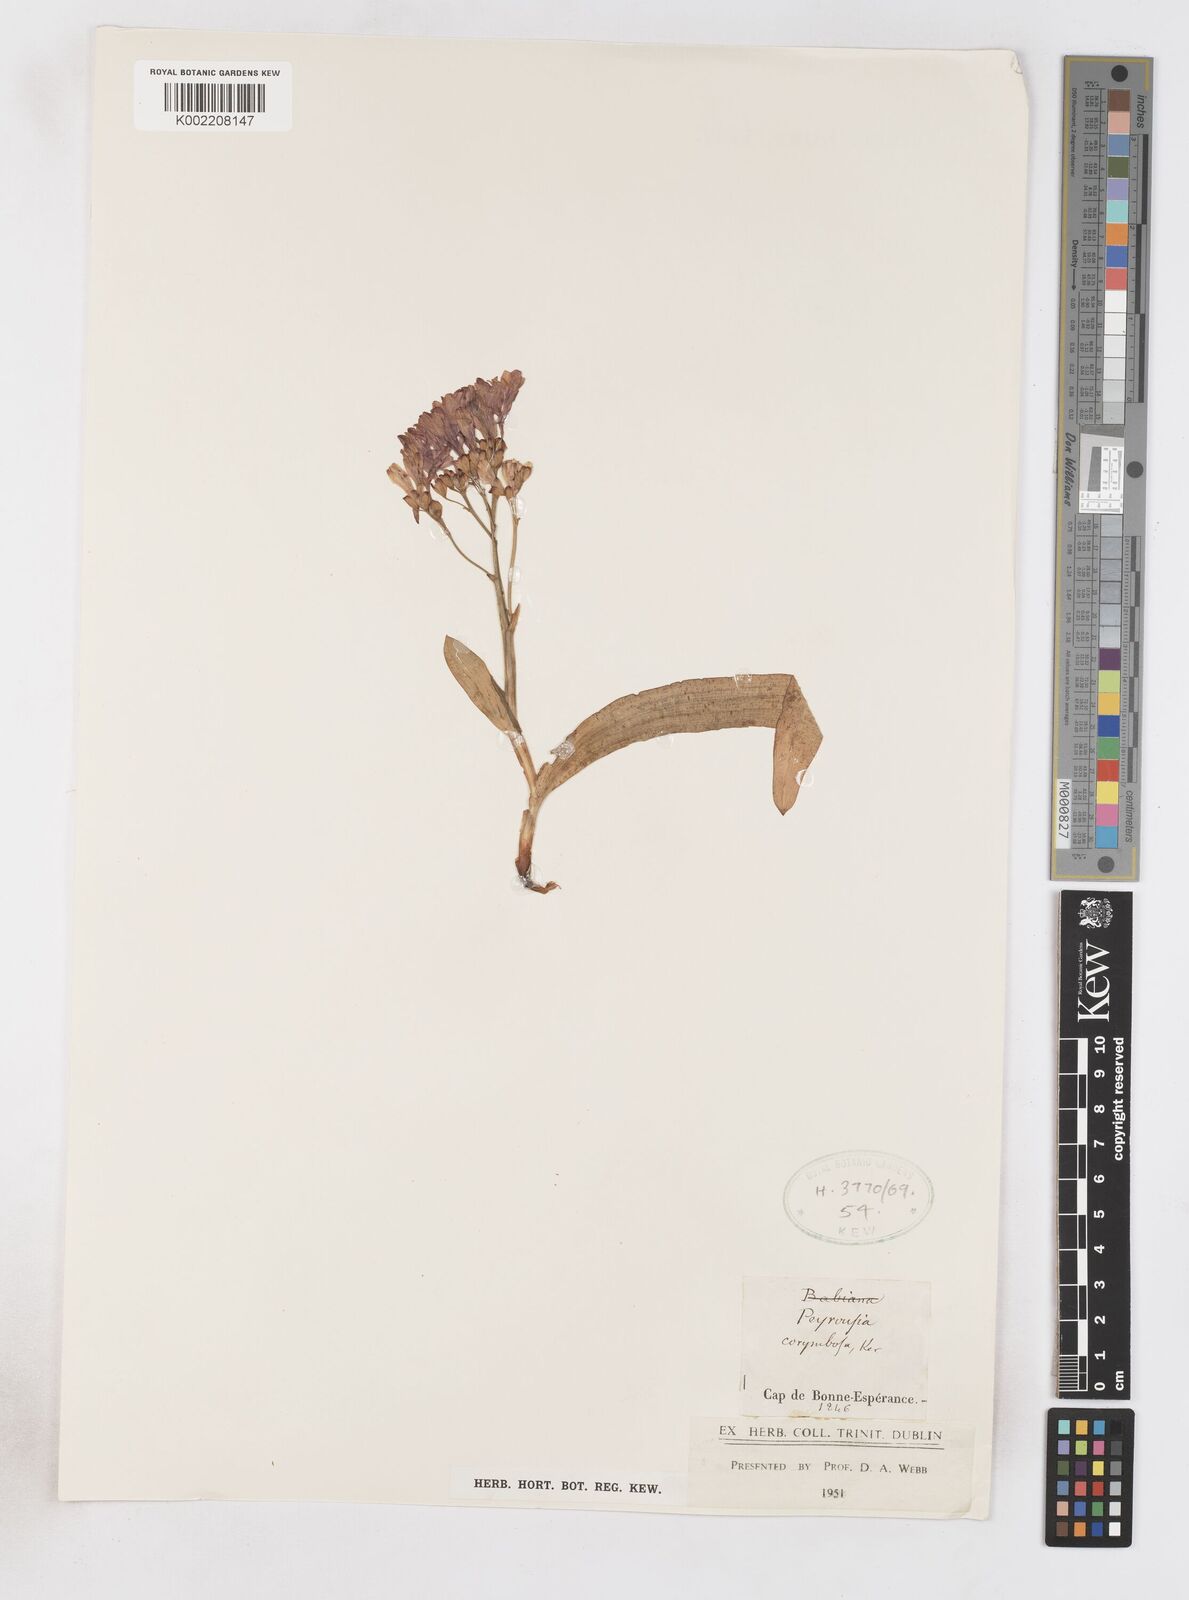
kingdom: Plantae
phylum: Tracheophyta
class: Liliopsida
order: Asparagales
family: Iridaceae
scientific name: Iridaceae
